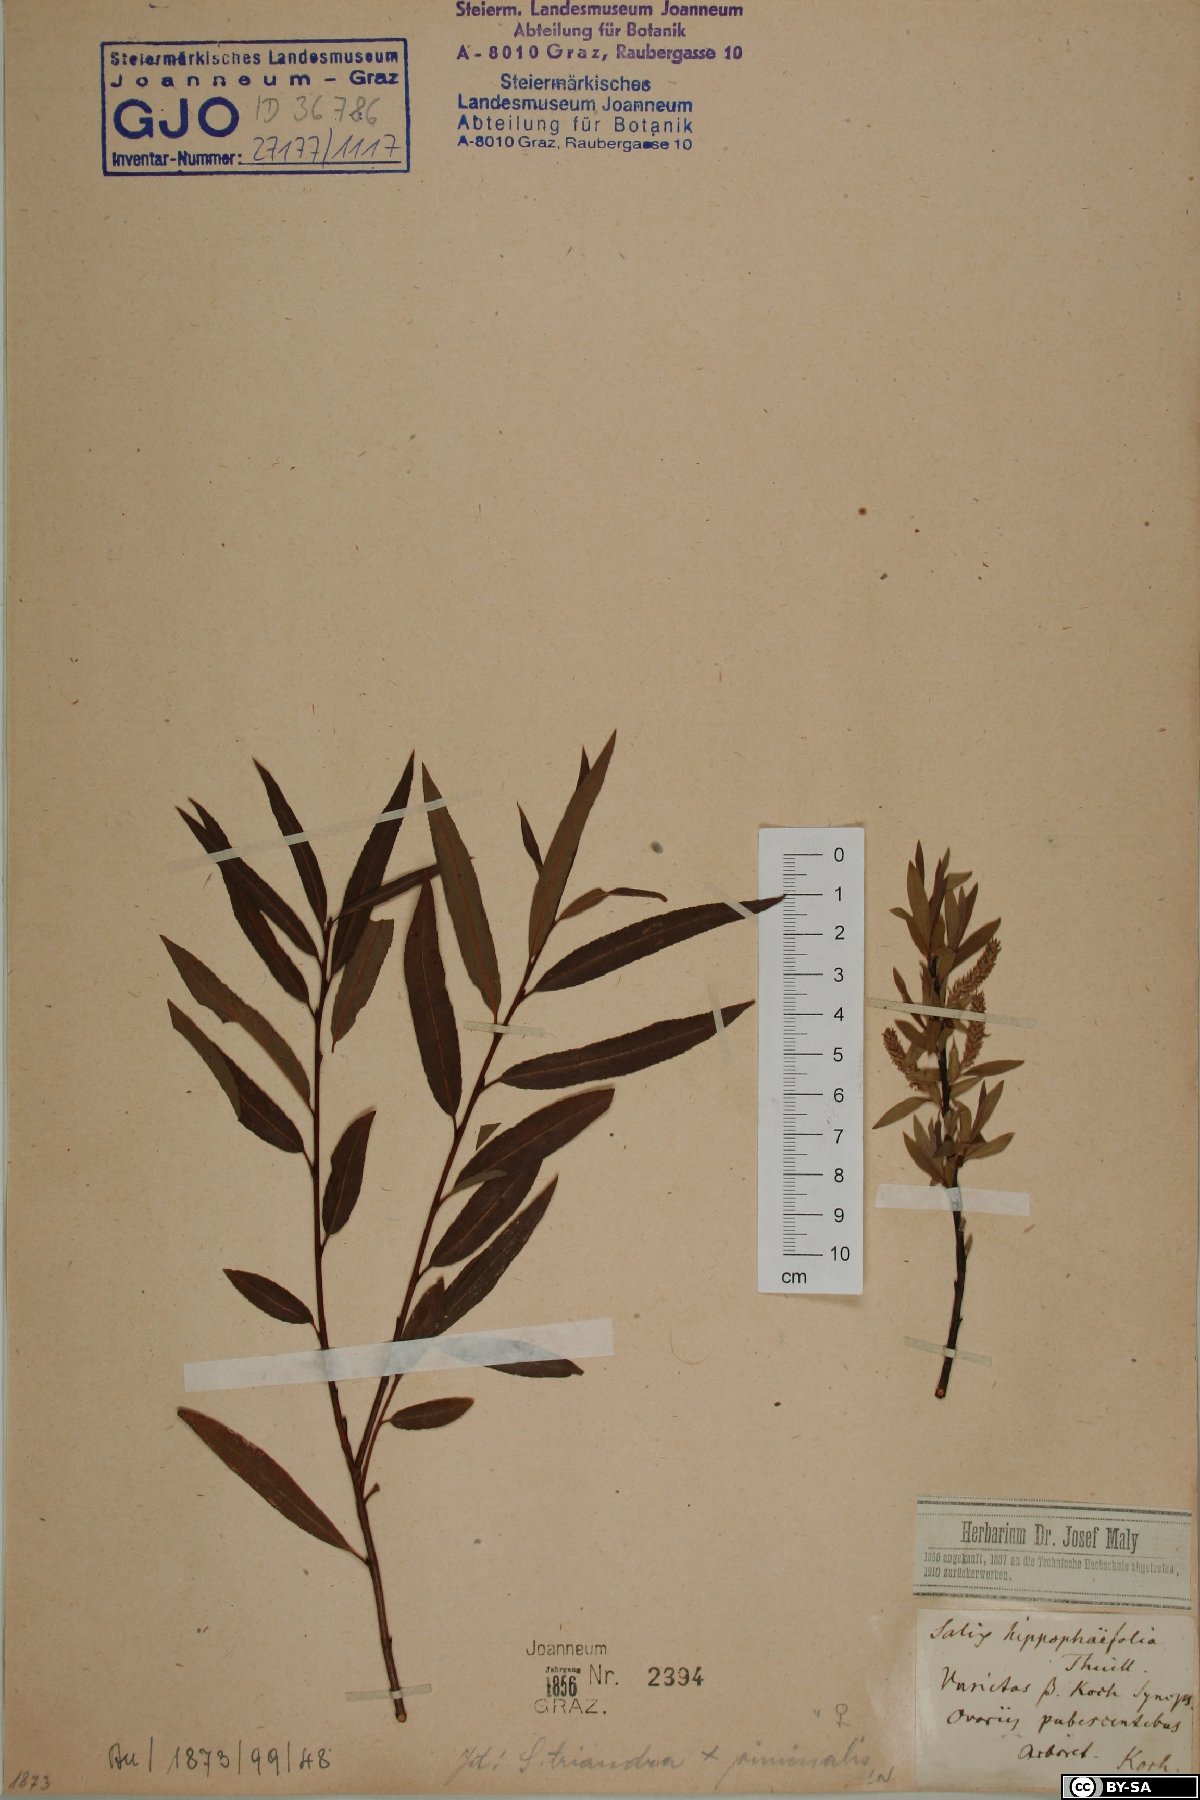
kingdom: Plantae
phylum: Tracheophyta
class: Magnoliopsida
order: Malpighiales
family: Salicaceae
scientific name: Salicaceae
